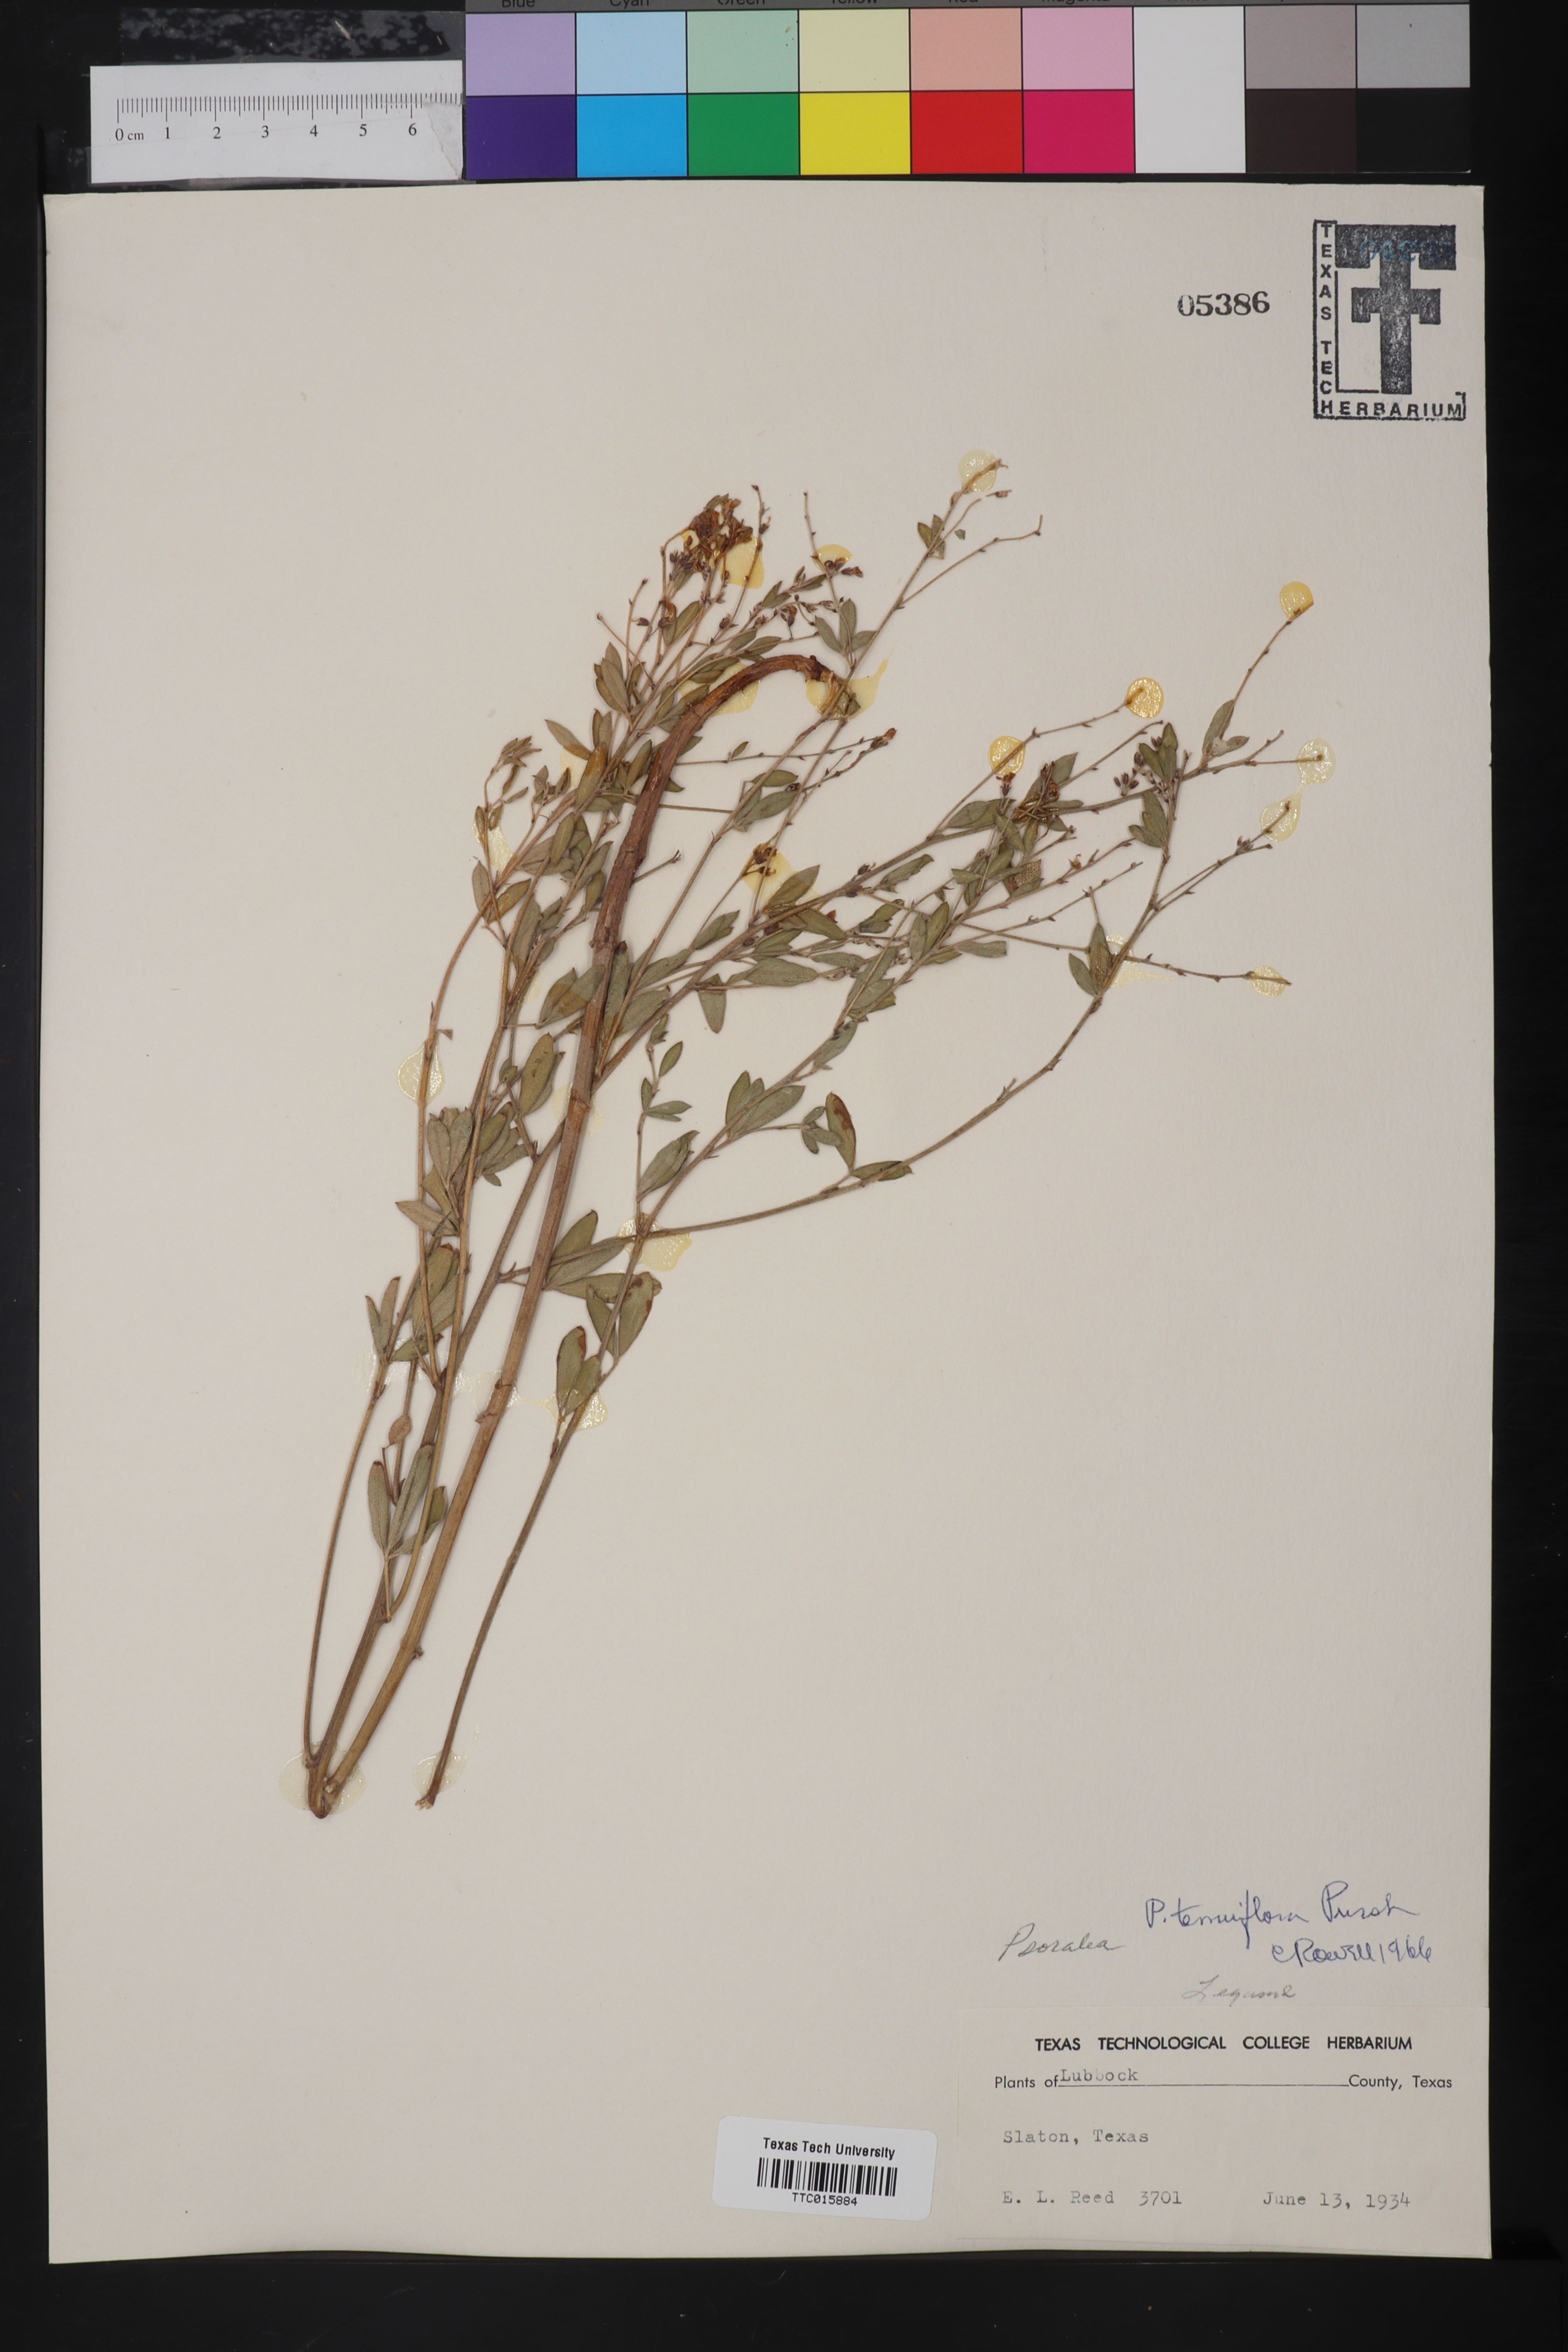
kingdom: Plantae
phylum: Tracheophyta
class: Magnoliopsida
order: Fabales
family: Fabaceae
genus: Pediomelum
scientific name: Pediomelum tenuiflorum
